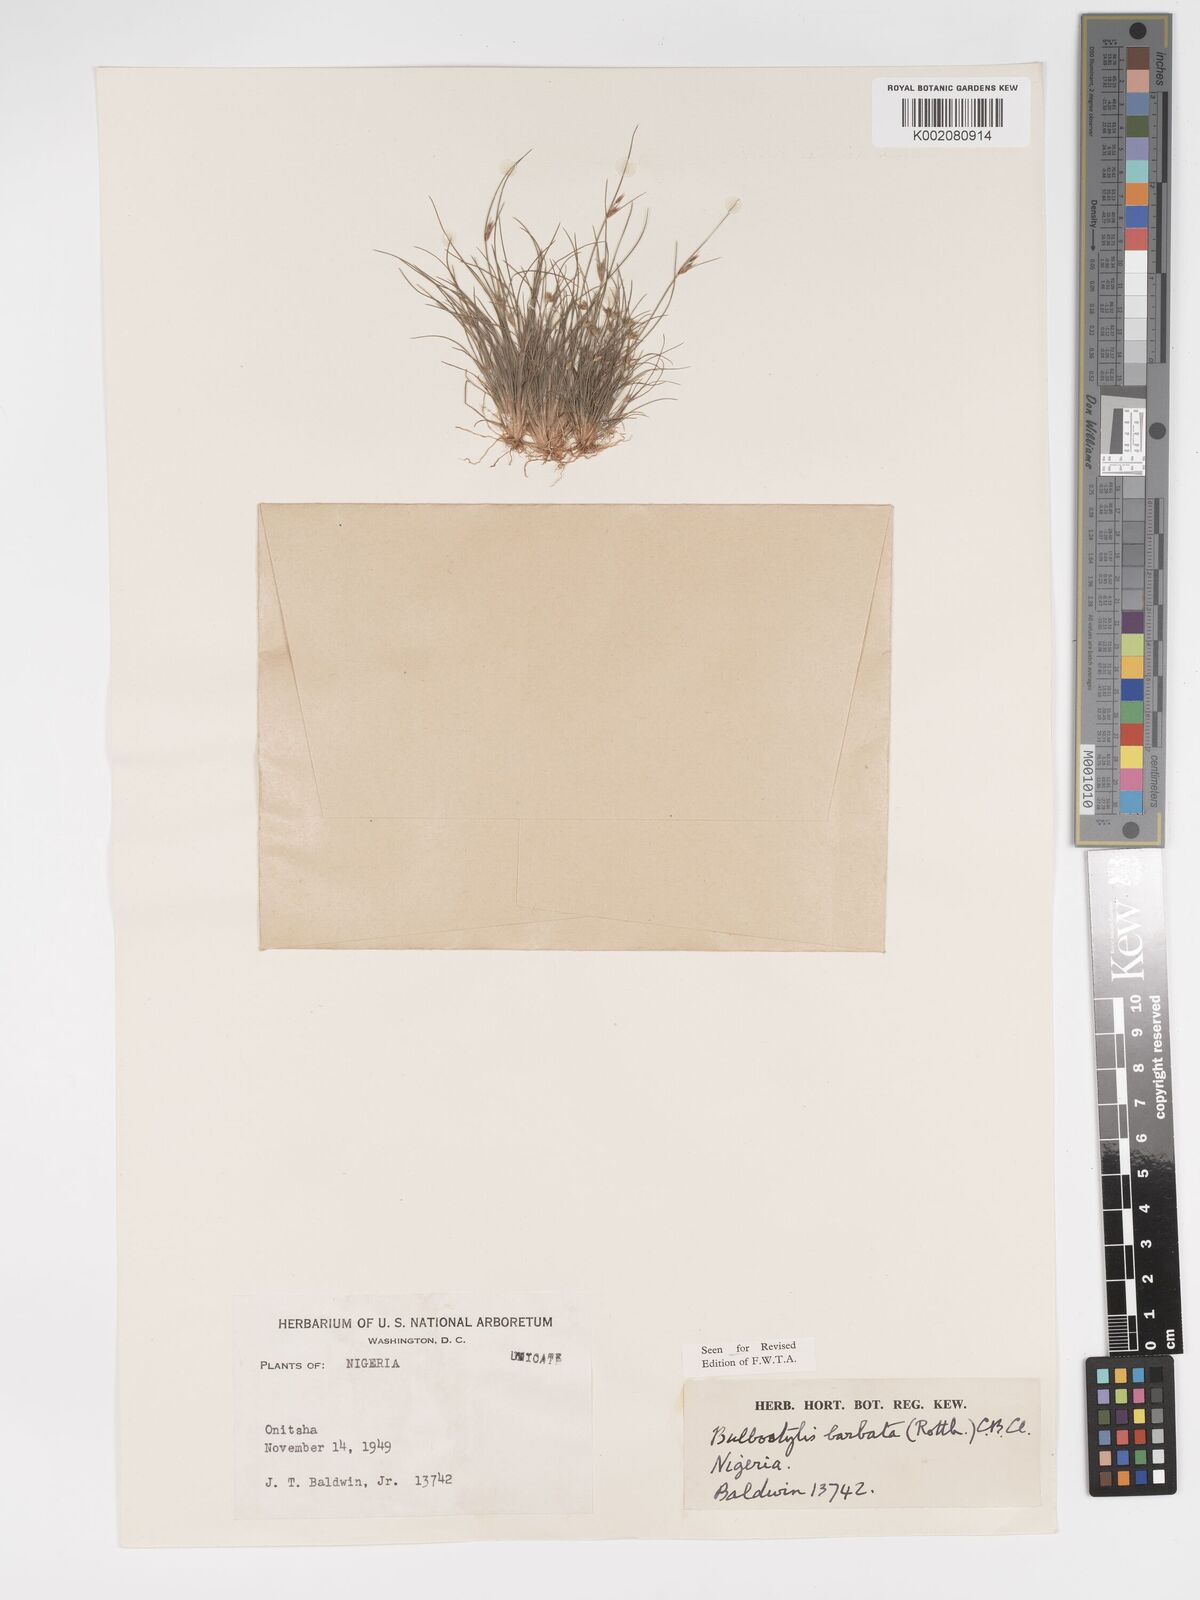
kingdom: Plantae
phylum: Tracheophyta
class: Liliopsida
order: Poales
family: Cyperaceae
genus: Bulbostylis
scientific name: Bulbostylis barbata
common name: Watergrass
